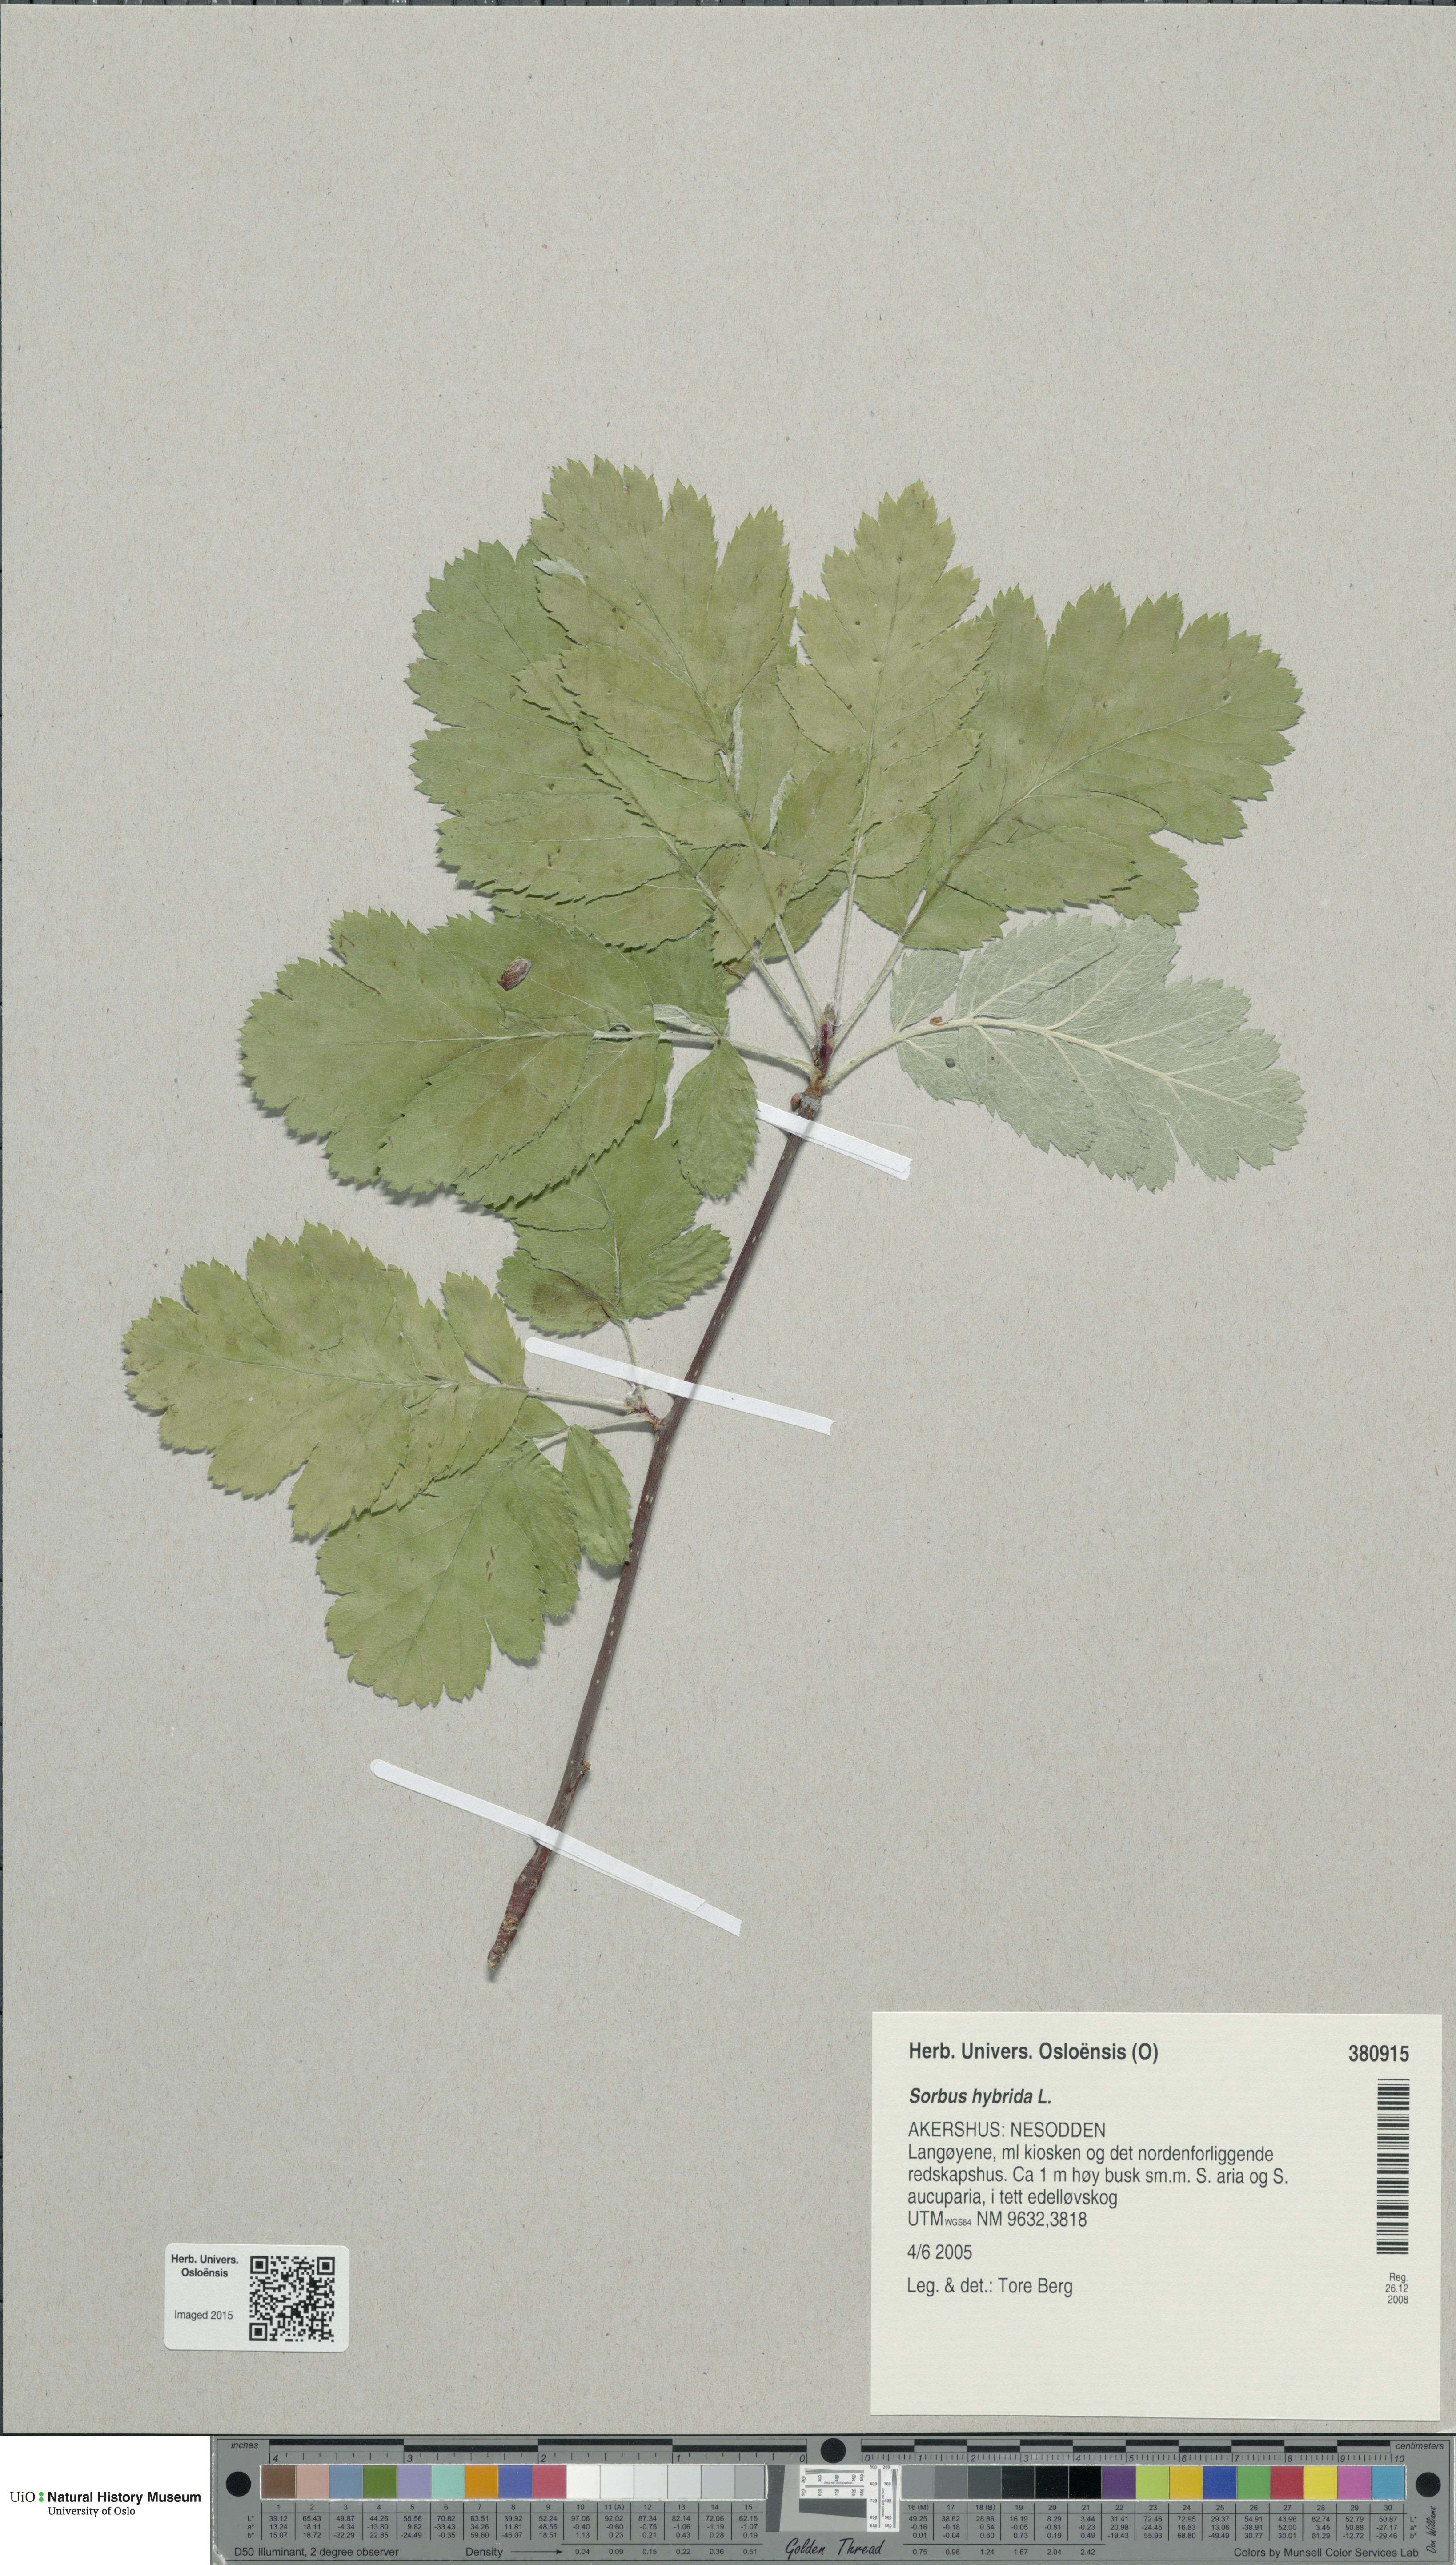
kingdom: Plantae
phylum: Tracheophyta
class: Magnoliopsida
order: Rosales
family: Rosaceae
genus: Hedlundia
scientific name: Hedlundia hybrida
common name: Swedish service-tree
